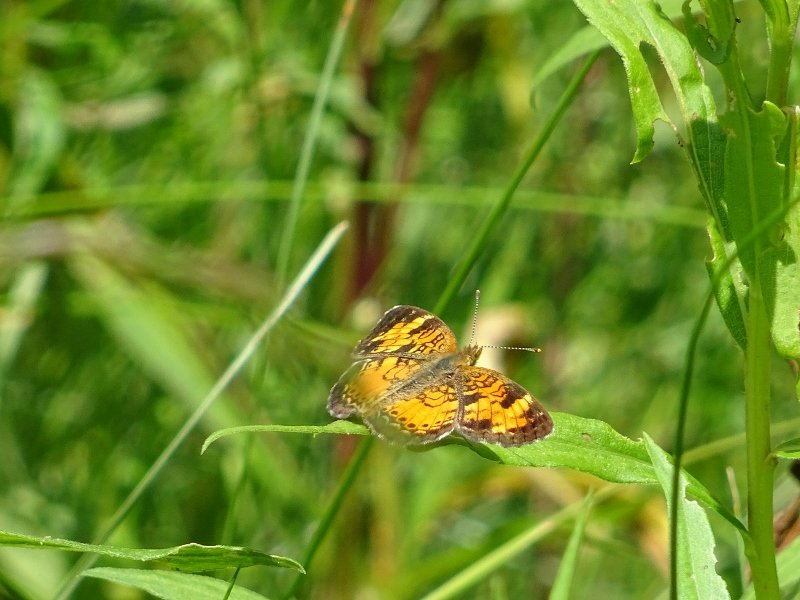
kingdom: Animalia
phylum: Arthropoda
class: Insecta
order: Lepidoptera
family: Nymphalidae
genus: Phyciodes
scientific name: Phyciodes tharos
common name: Northern Crescent
